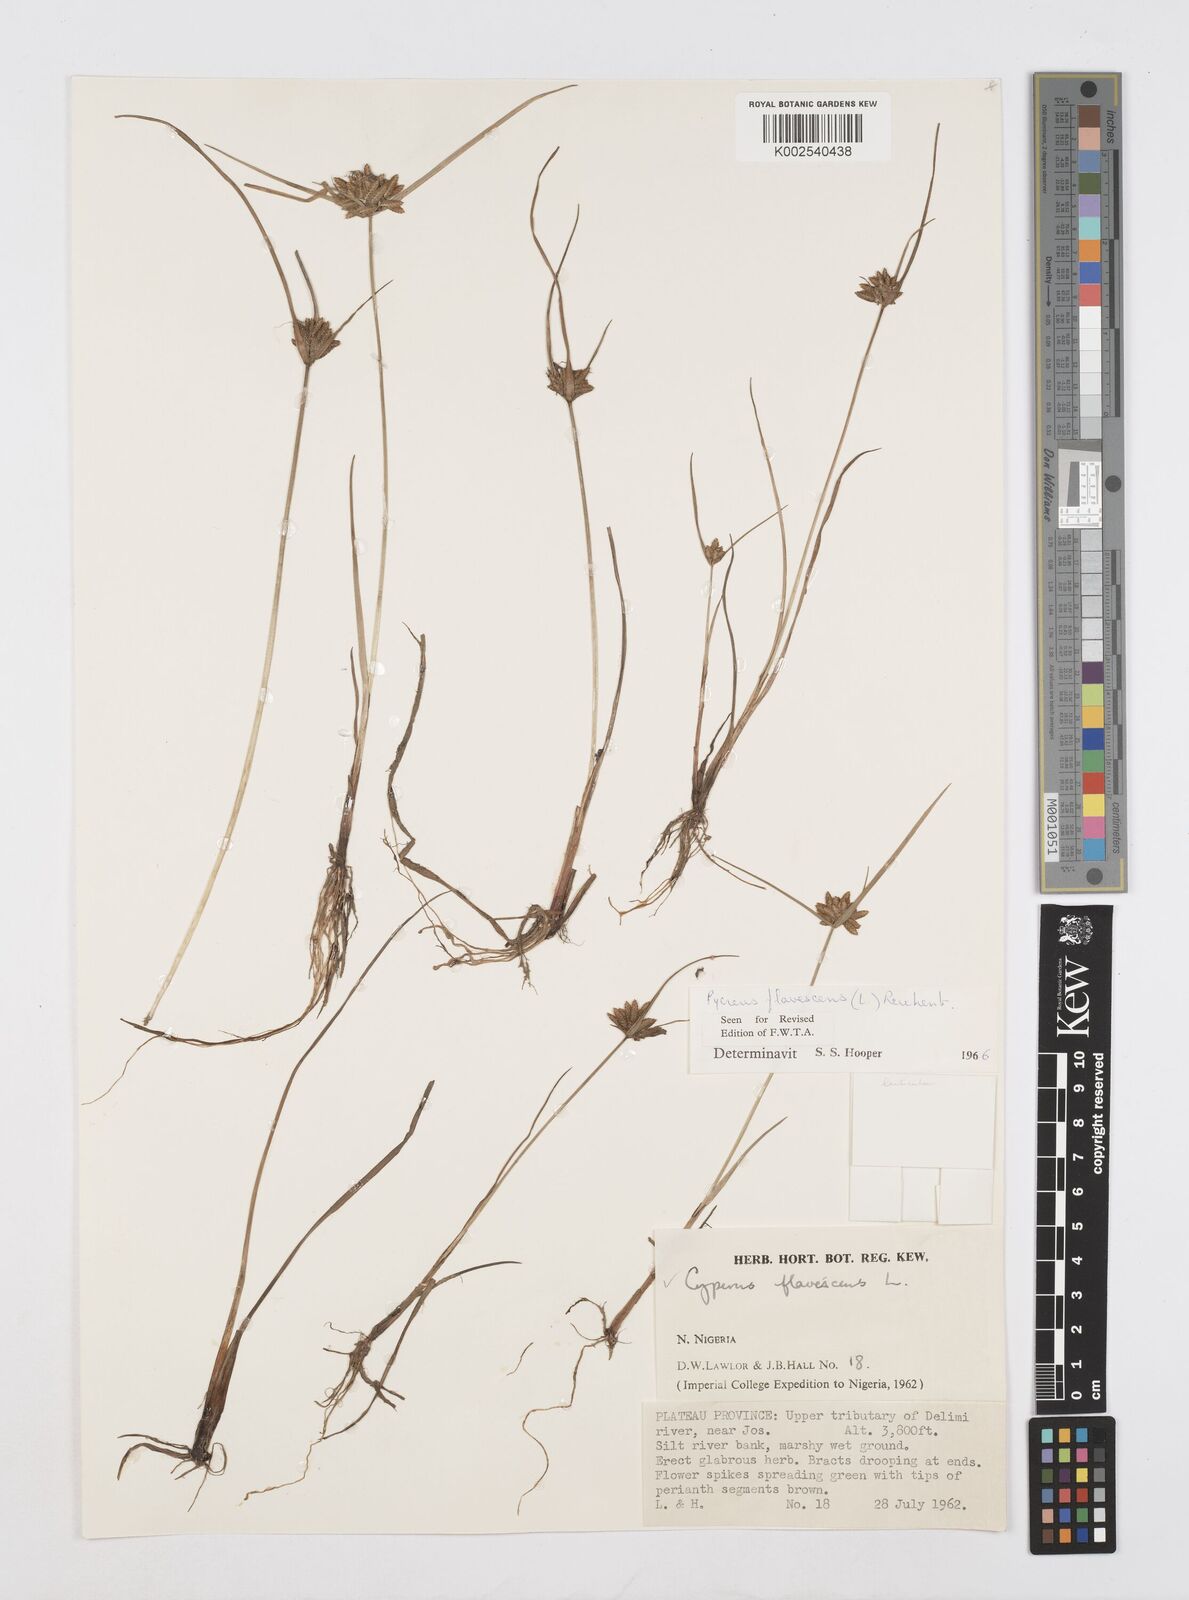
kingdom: Plantae
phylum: Tracheophyta
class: Liliopsida
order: Poales
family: Cyperaceae
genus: Cyperus
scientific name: Cyperus flavescens
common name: Yellow galingale
